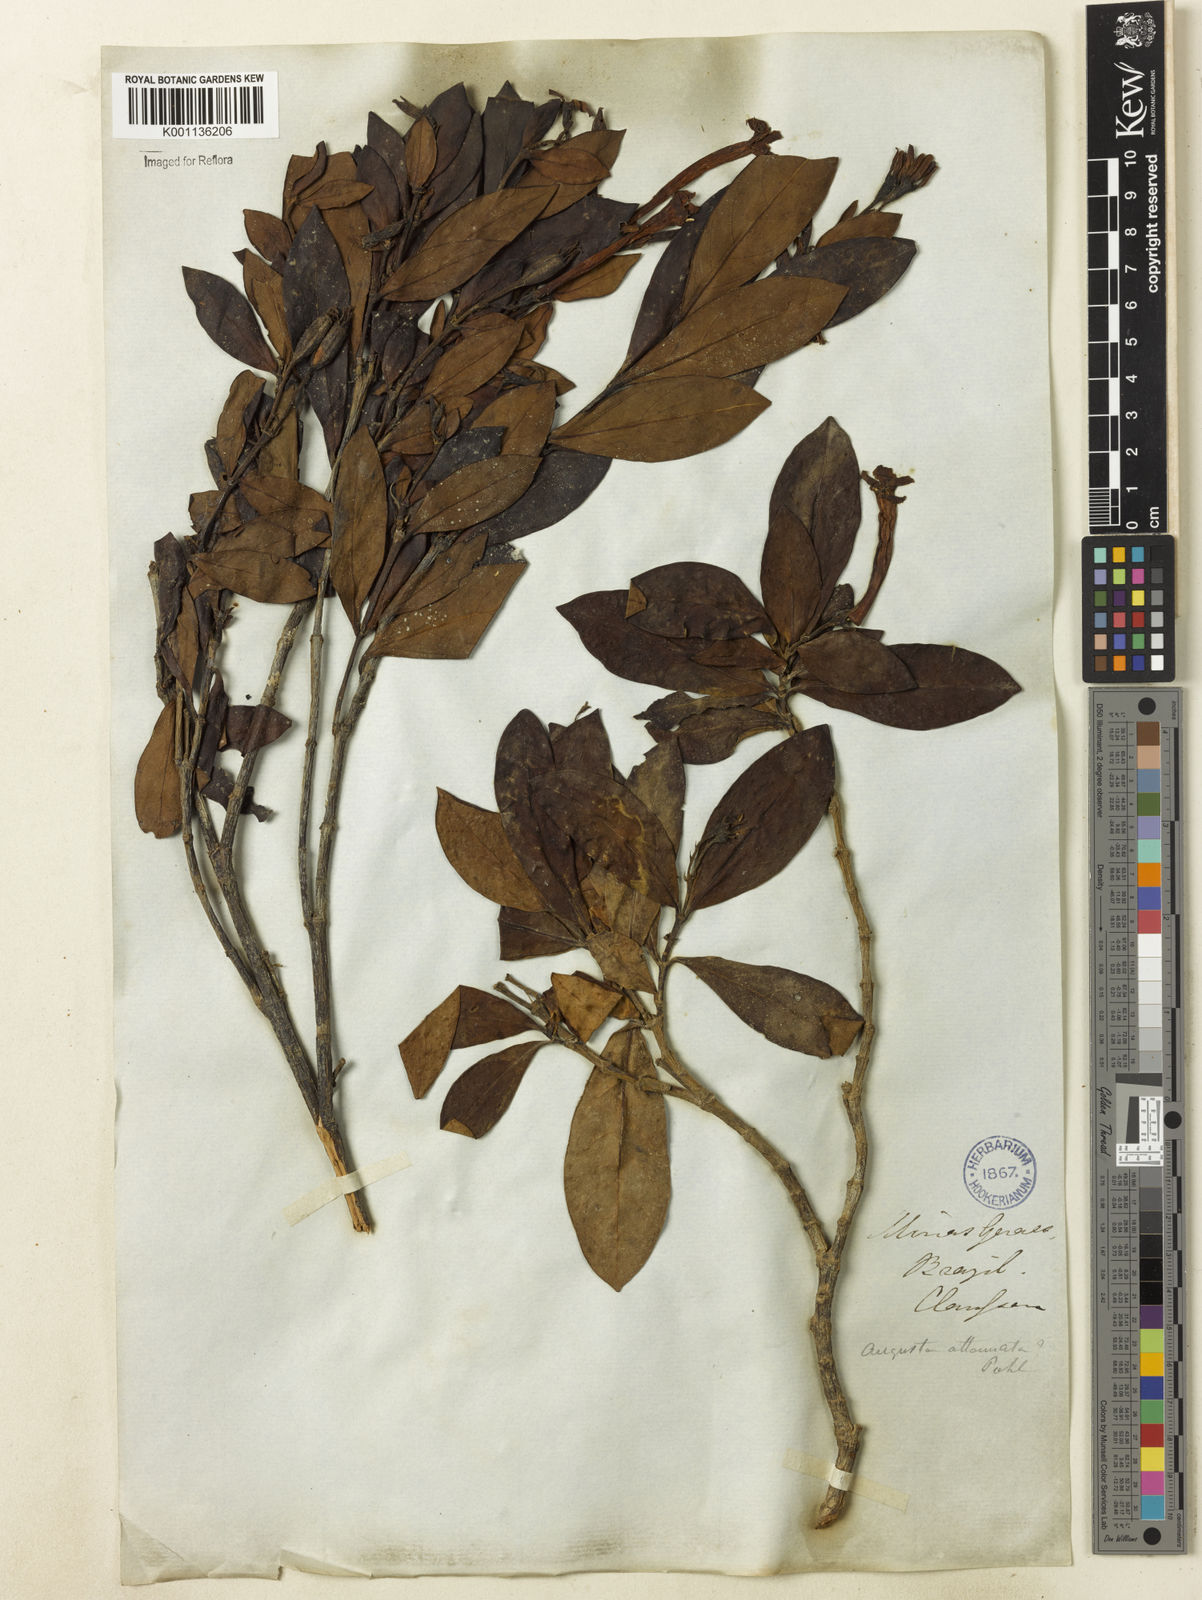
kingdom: Plantae
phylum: Tracheophyta
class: Magnoliopsida
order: Gentianales
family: Rubiaceae
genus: Augusta
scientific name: Augusta longifolia
